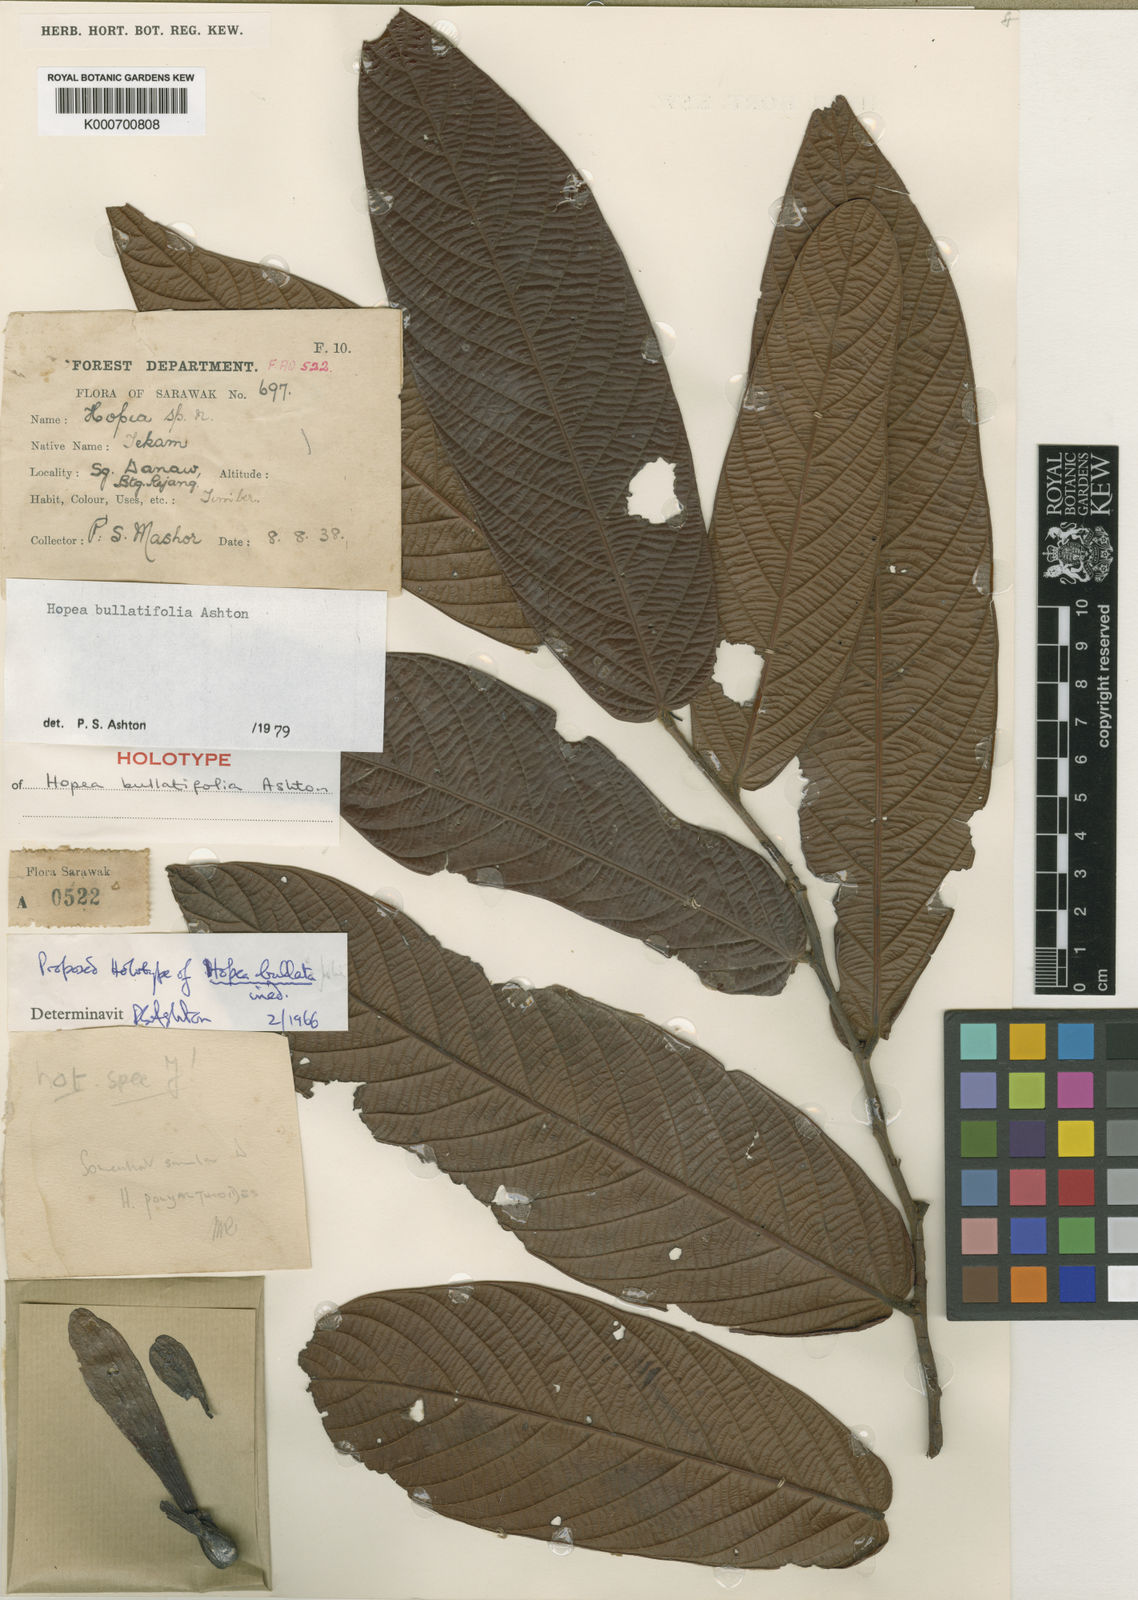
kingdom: Plantae
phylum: Tracheophyta
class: Magnoliopsida
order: Malvales
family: Dipterocarpaceae
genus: Hopea
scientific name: Hopea bullatifolia
